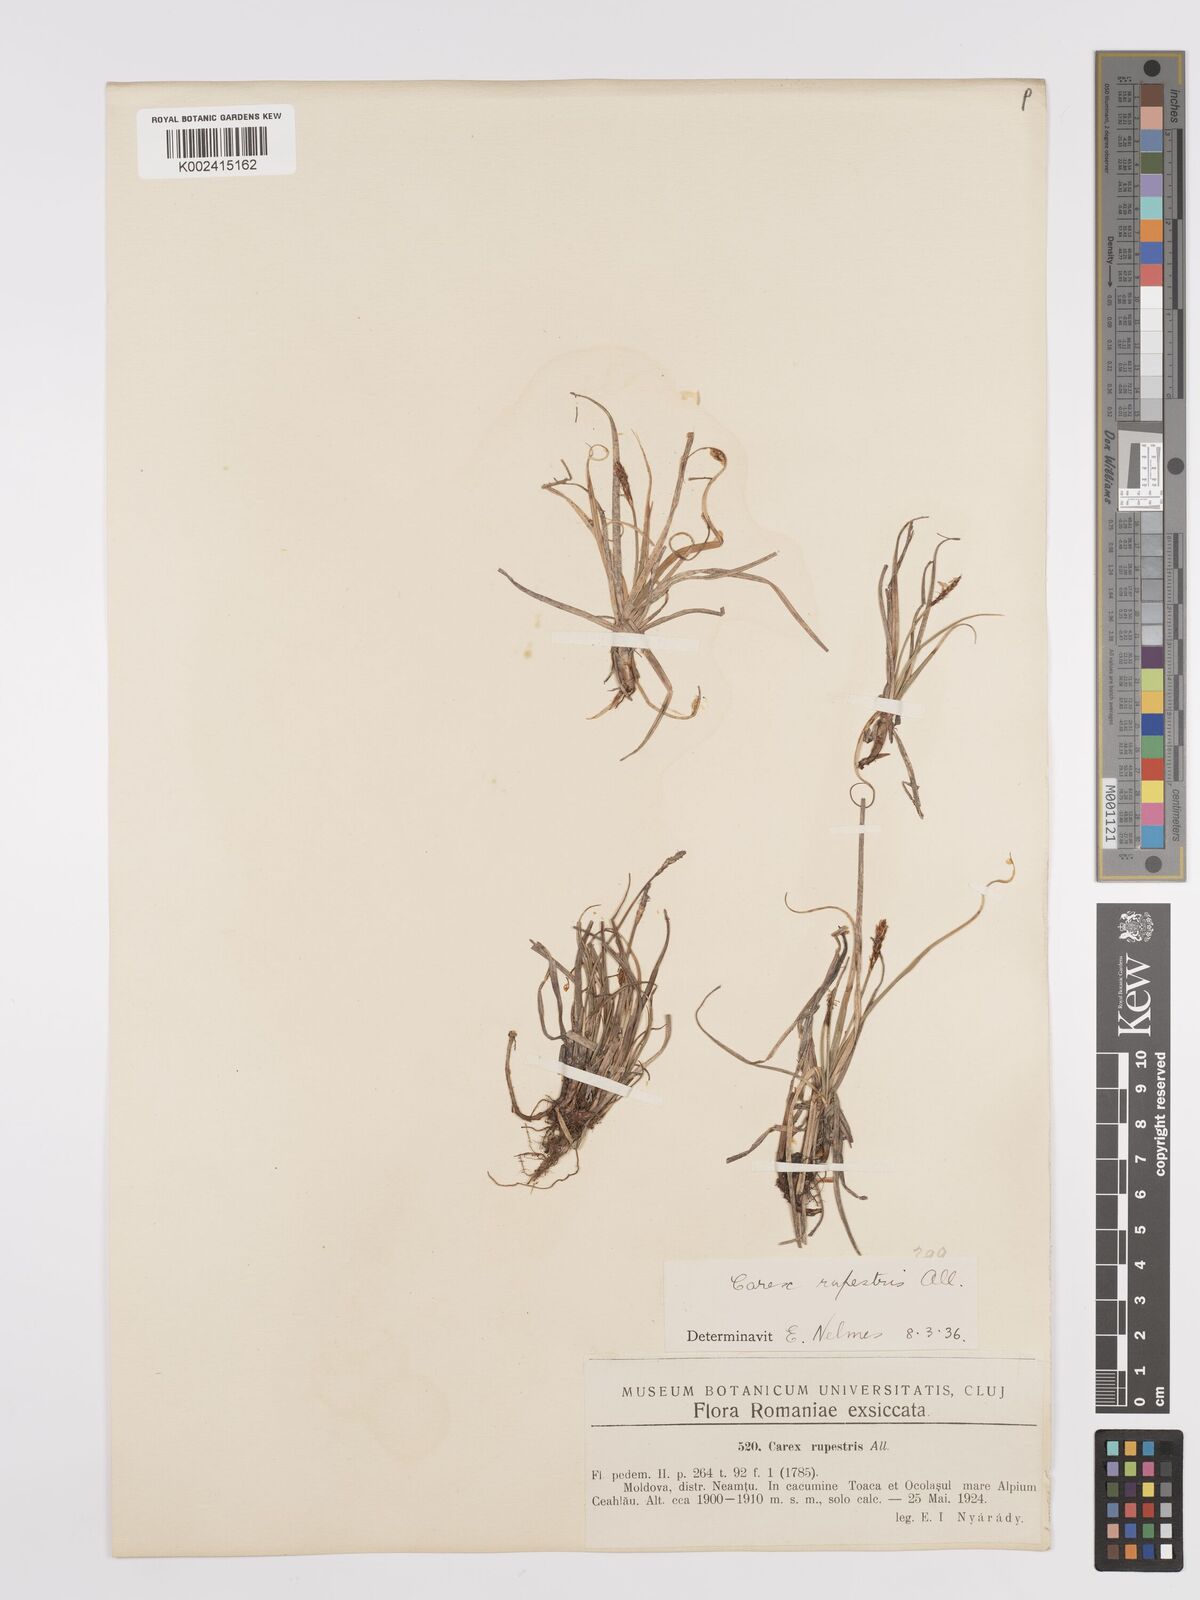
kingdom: Plantae
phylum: Tracheophyta
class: Liliopsida
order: Poales
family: Cyperaceae
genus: Carex
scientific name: Carex rupestris
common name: Rock sedge
